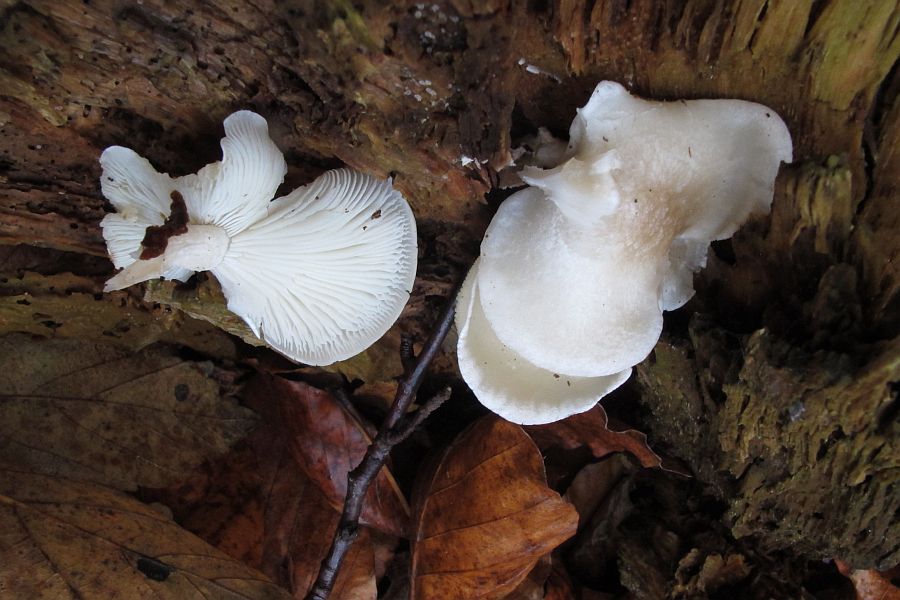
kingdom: Fungi
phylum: Basidiomycota
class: Agaricomycetes
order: Agaricales
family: Lyophyllaceae
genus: Ossicaulis
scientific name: Ossicaulis lignatilis
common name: hvidlig vedtragthat
